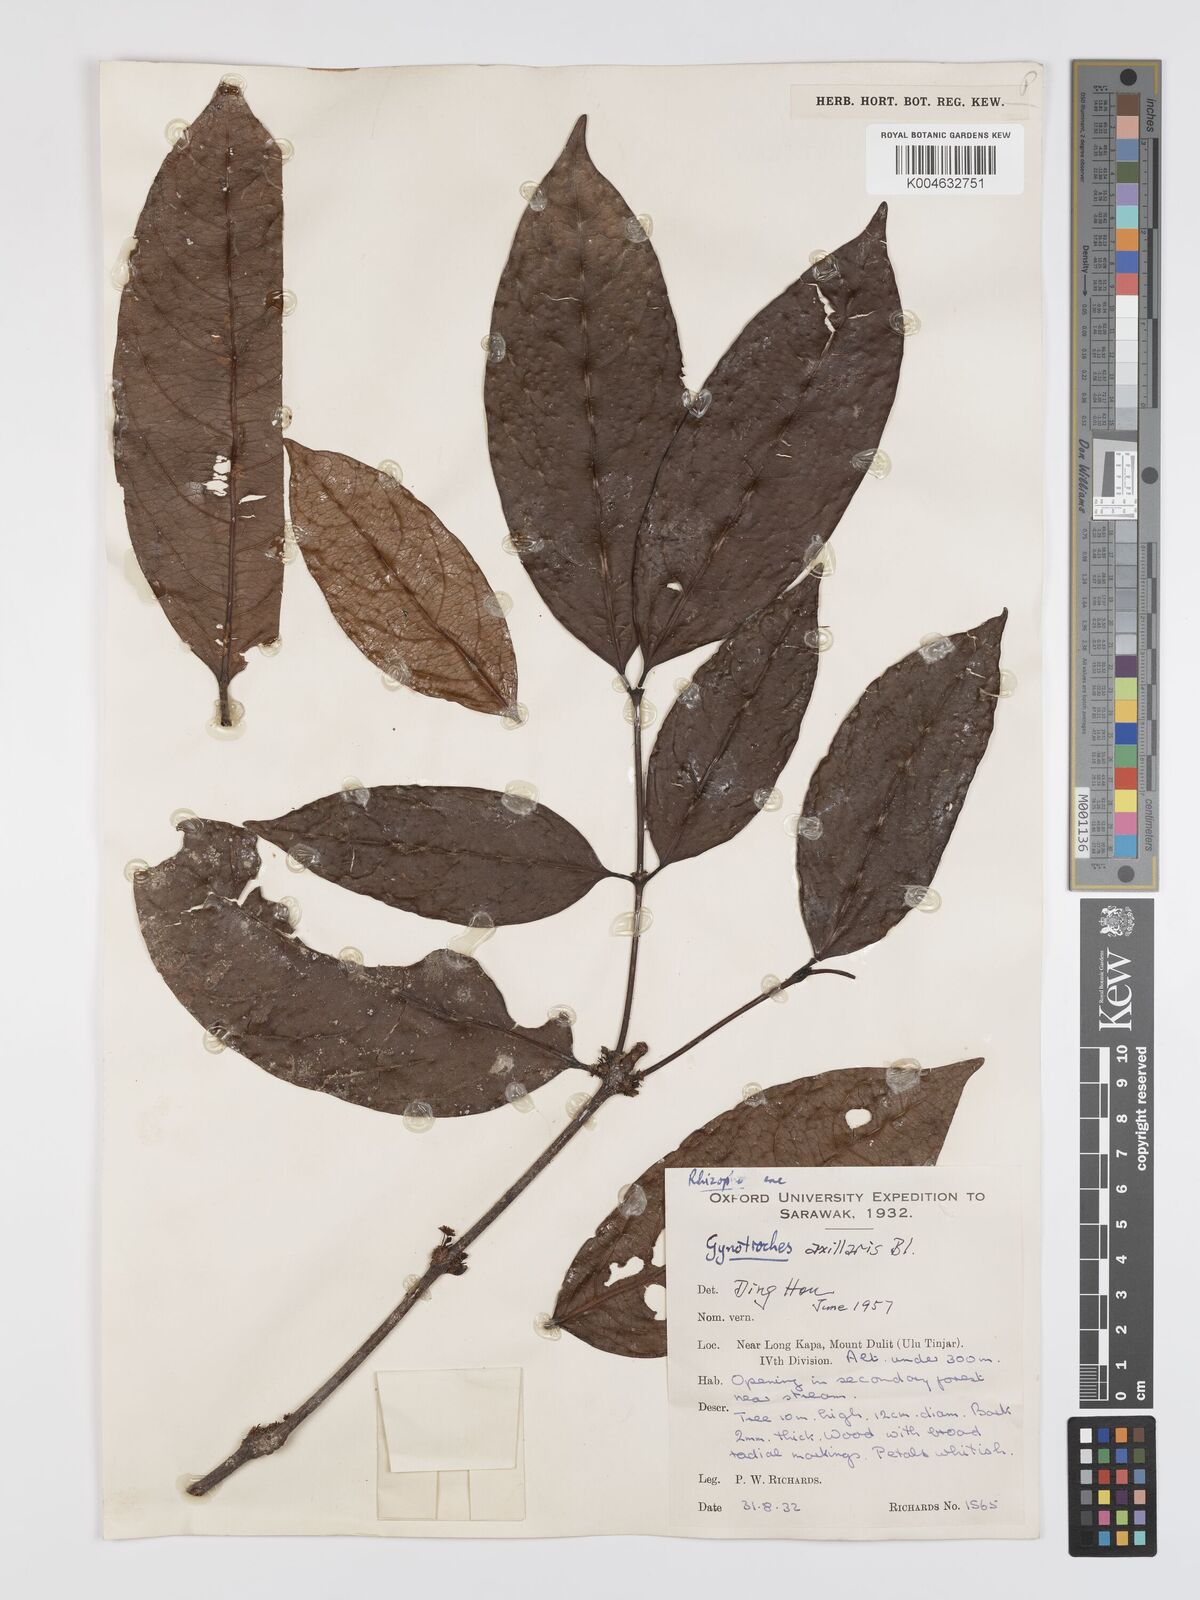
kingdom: Plantae
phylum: Tracheophyta
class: Magnoliopsida
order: Malpighiales
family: Rhizophoraceae
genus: Gynotroches
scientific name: Gynotroches axillaris
